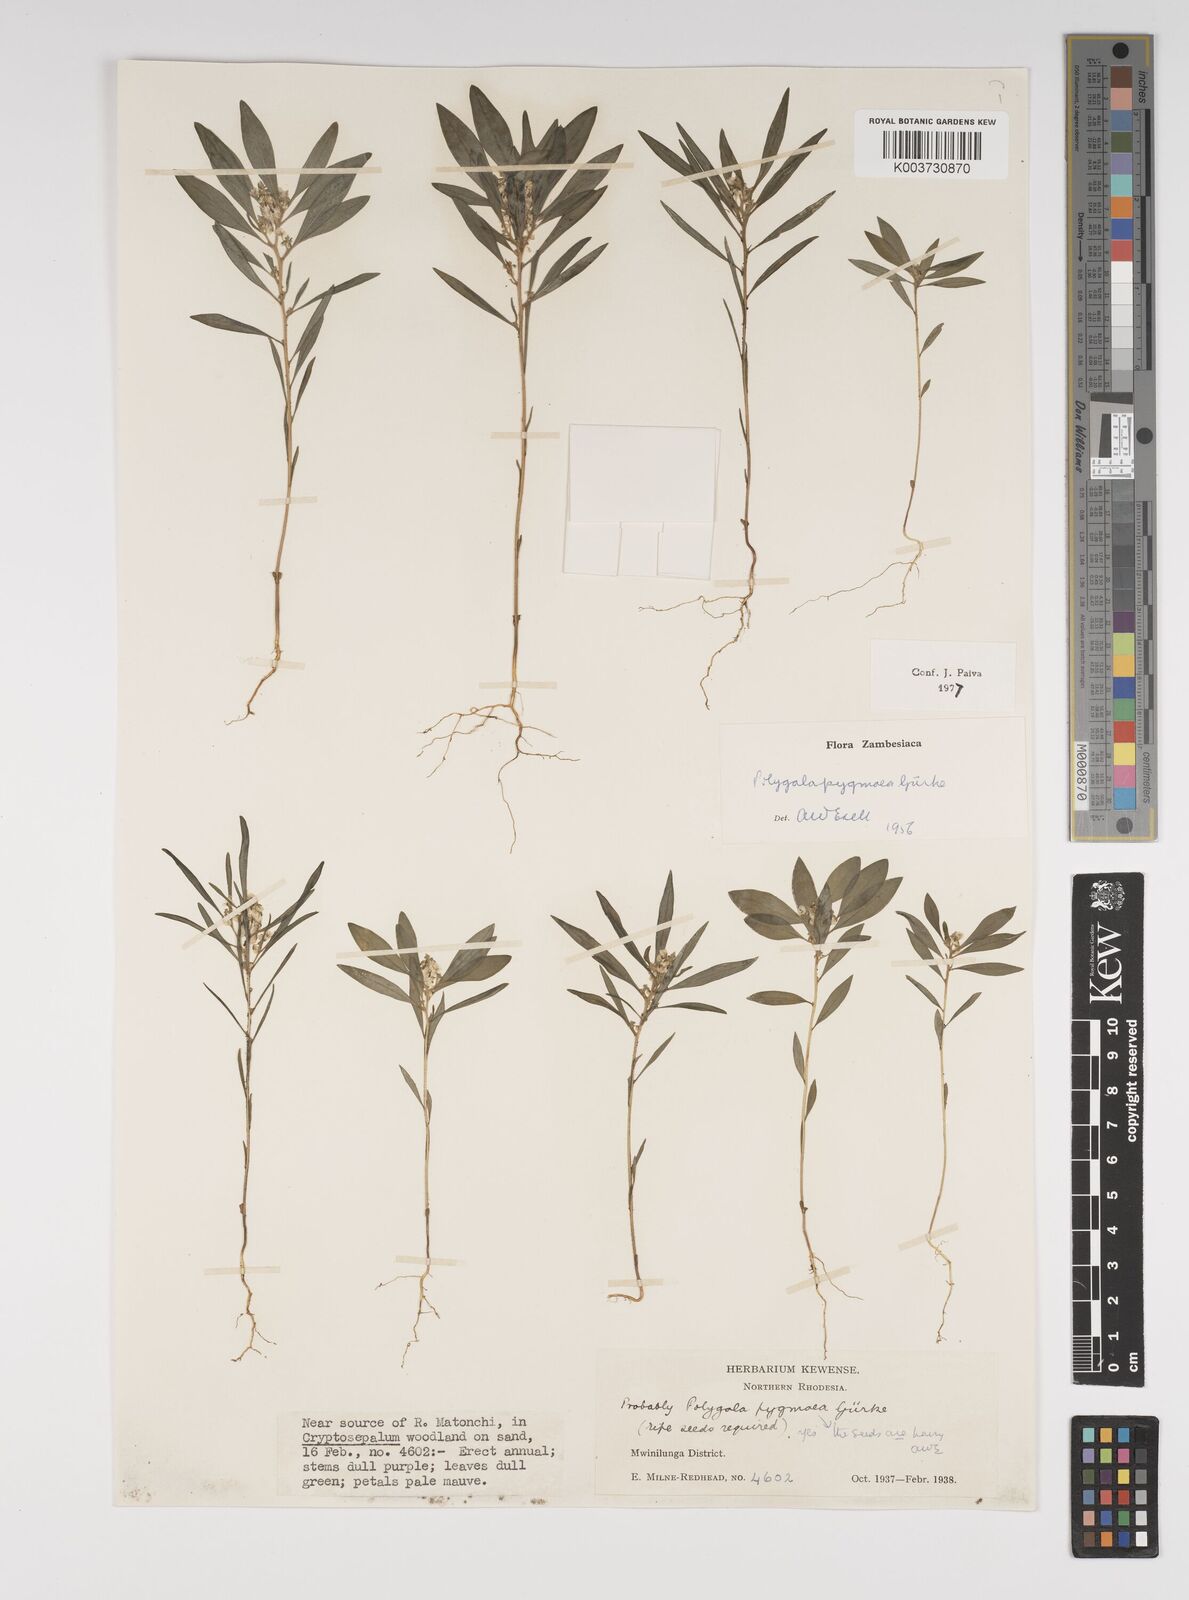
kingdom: Plantae
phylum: Tracheophyta
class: Magnoliopsida
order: Fabales
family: Polygalaceae
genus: Polygala
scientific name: Polygala welwitschii
